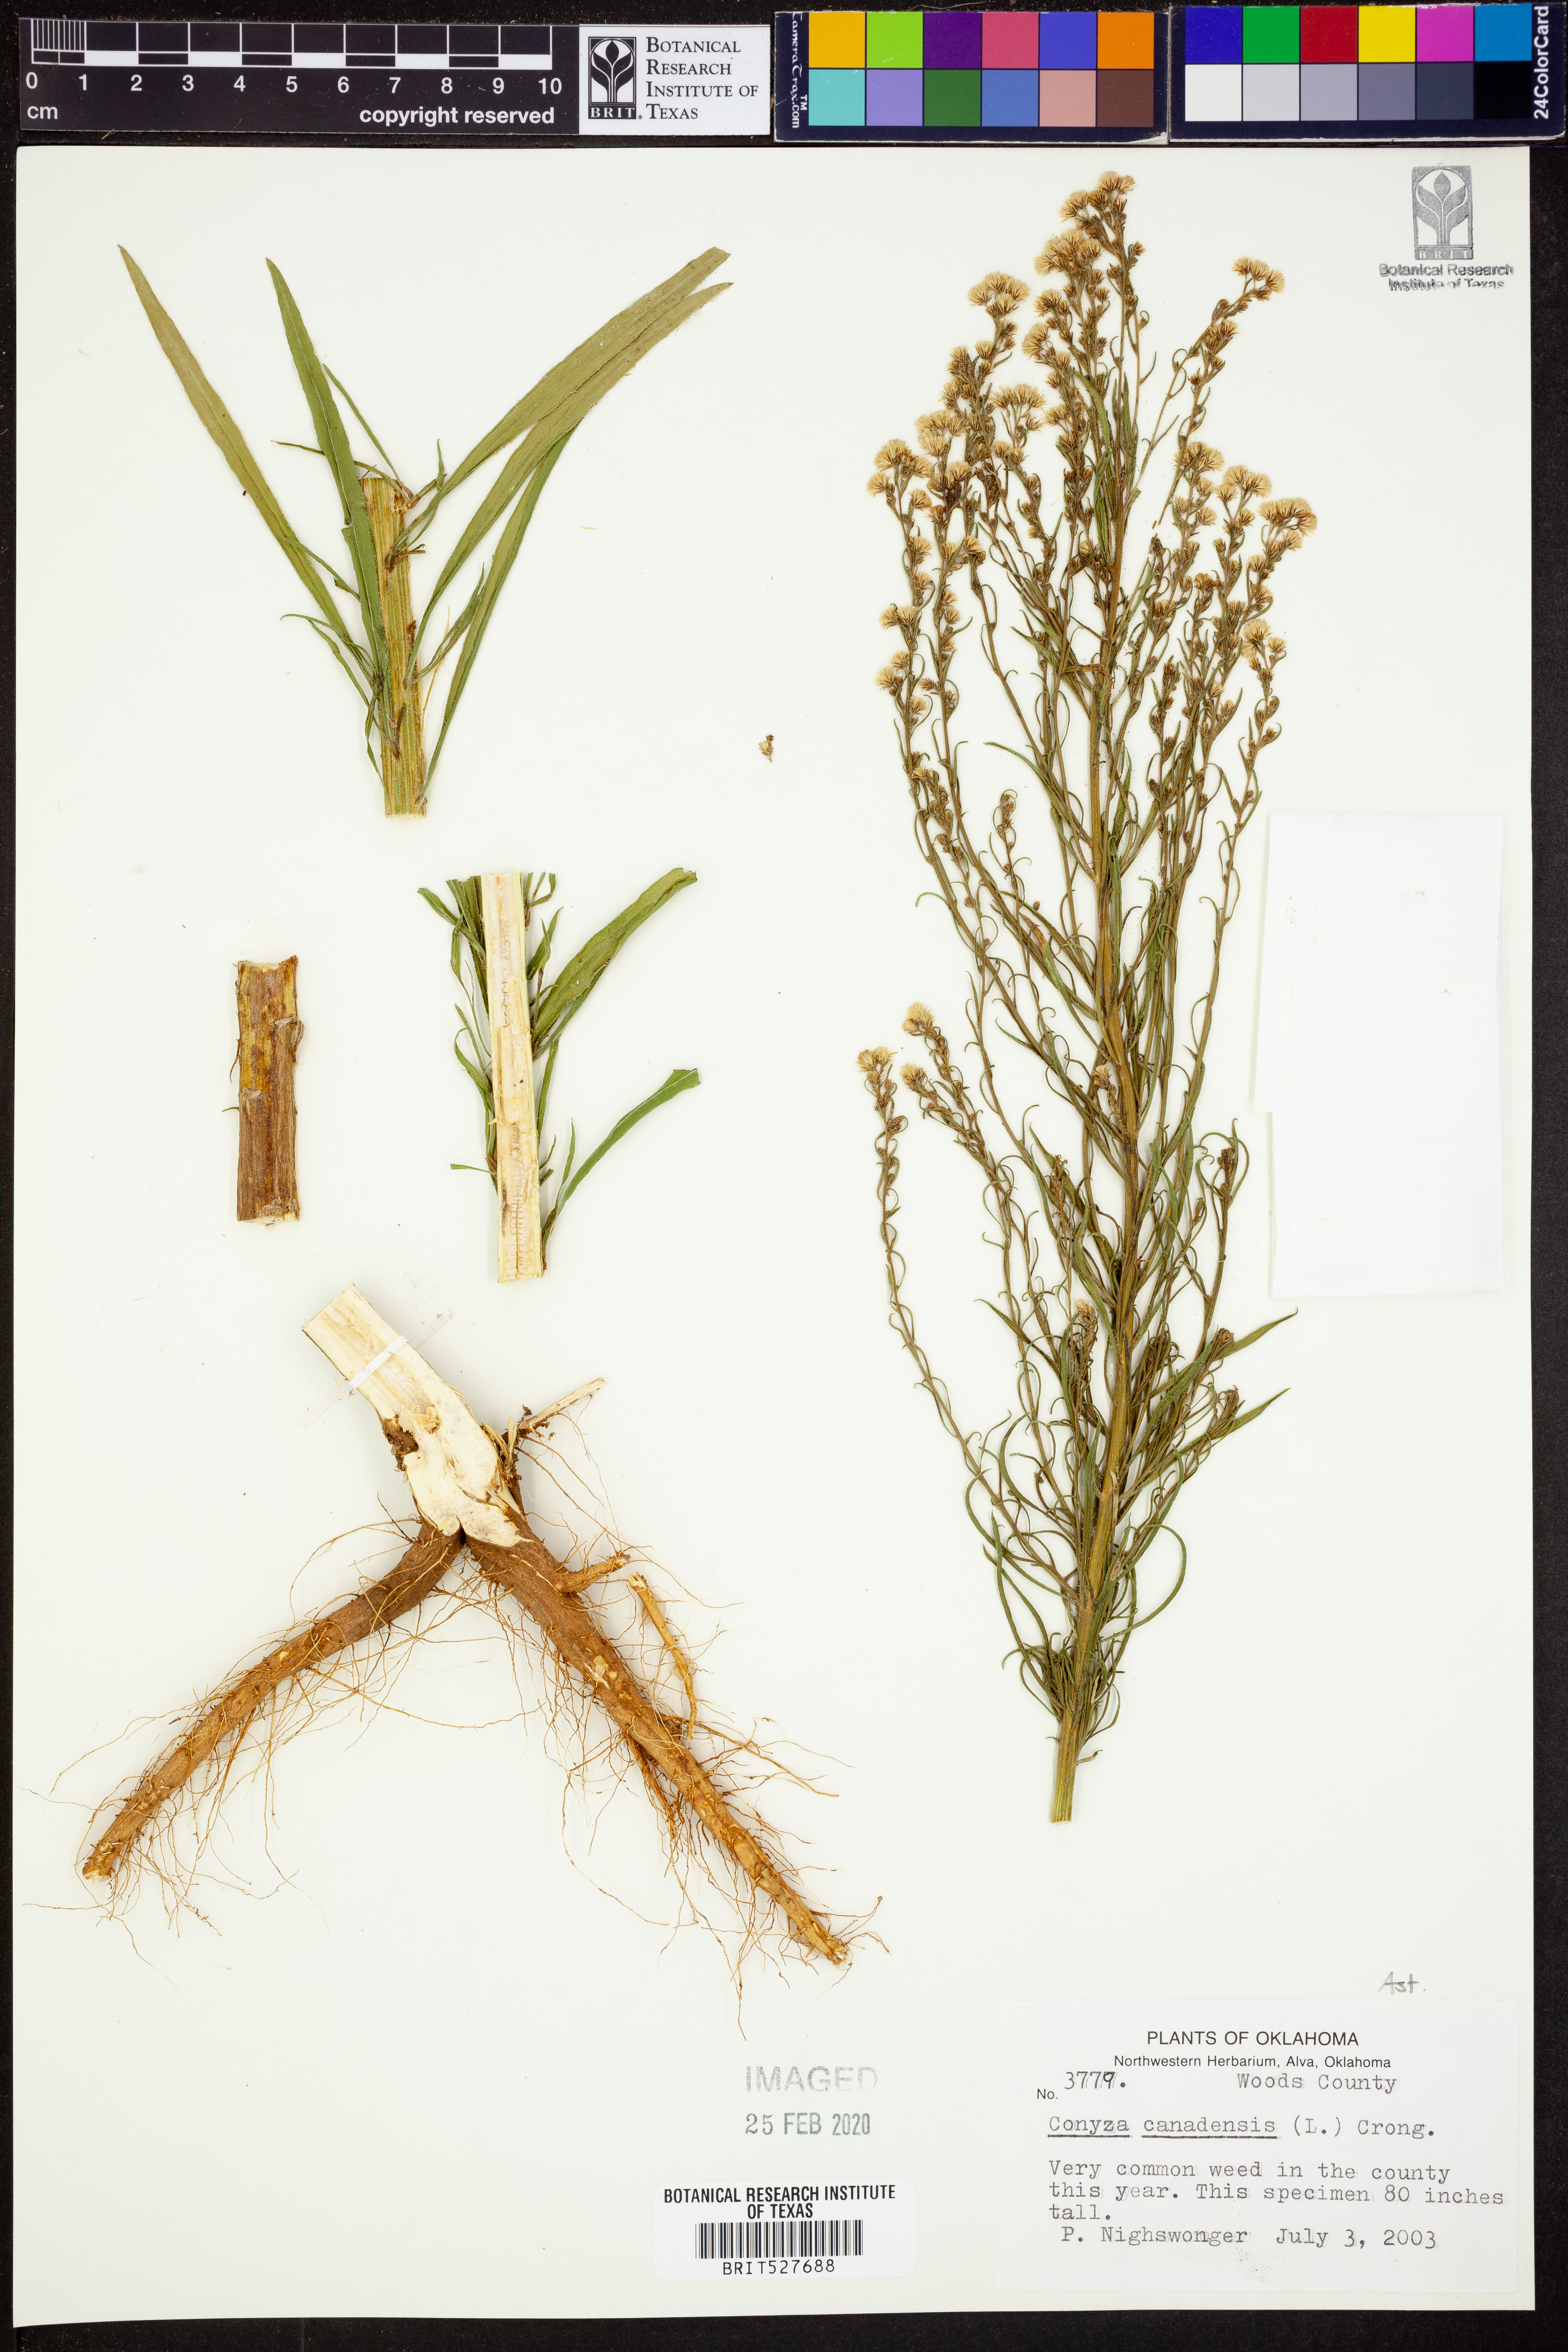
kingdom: Plantae
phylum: Tracheophyta
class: Magnoliopsida
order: Asterales
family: Asteraceae
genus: Erigeron
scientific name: Erigeron canadensis
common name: Canadian fleabane
